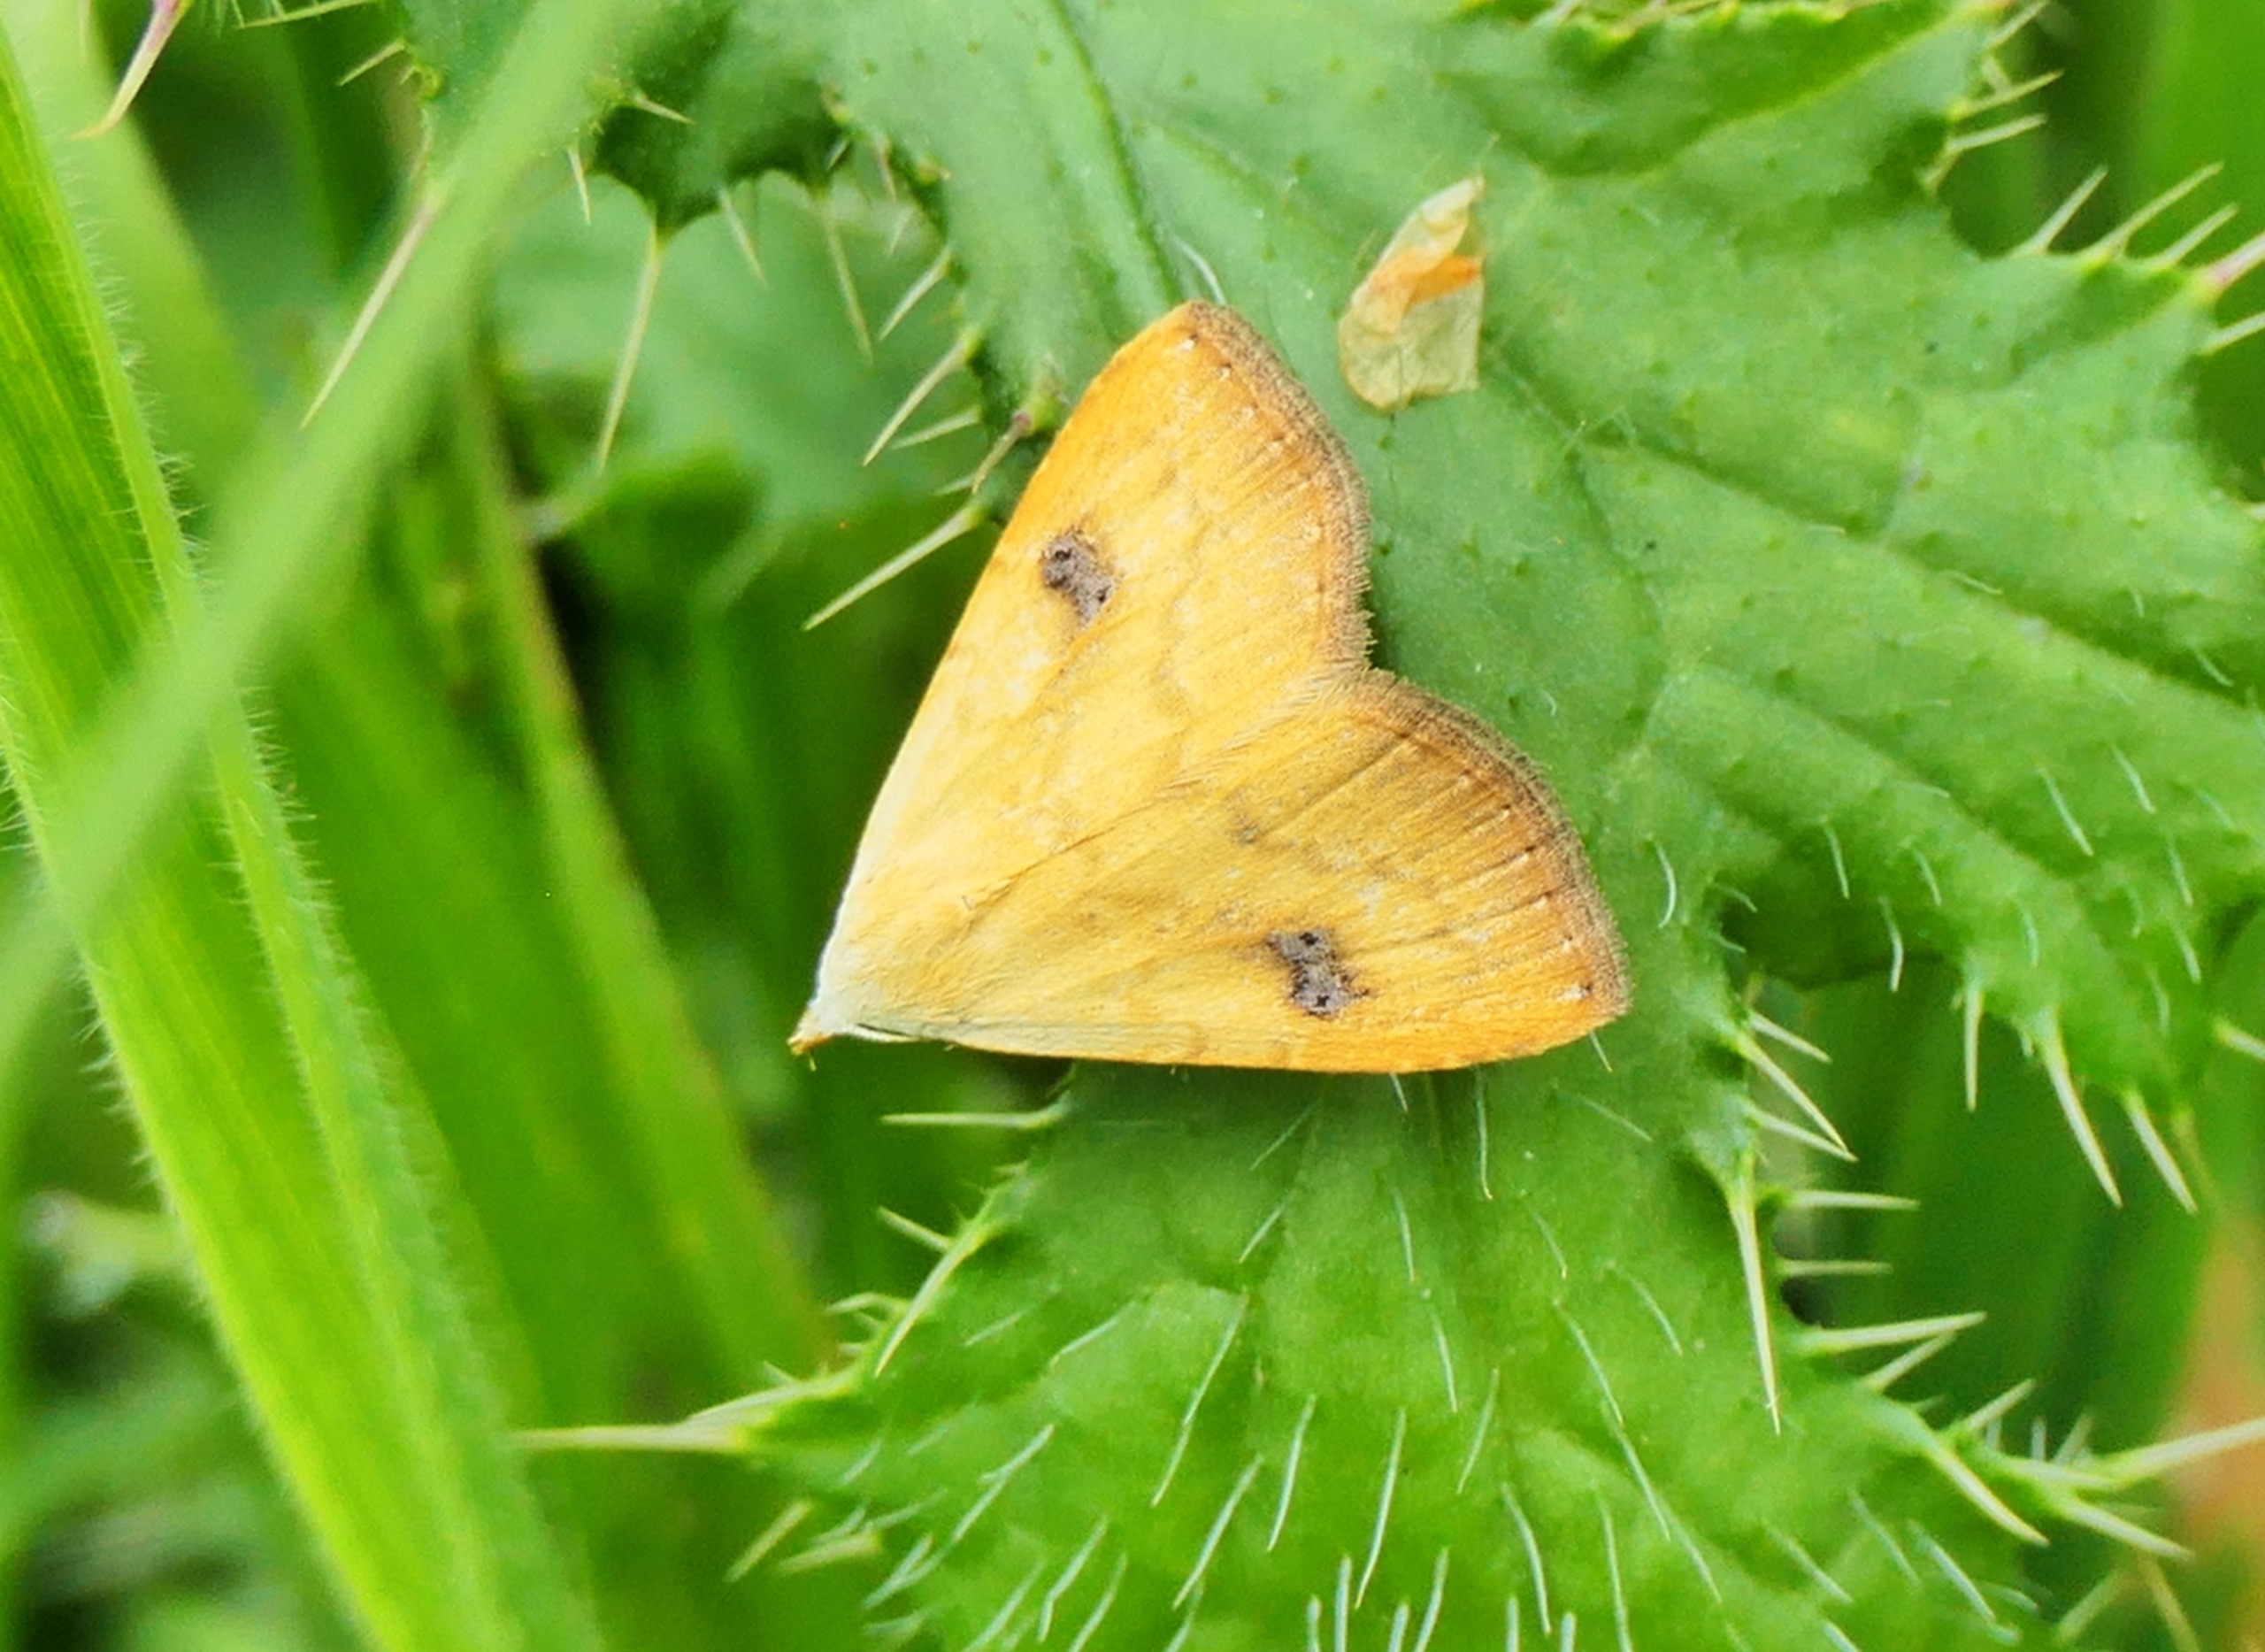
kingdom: Animalia
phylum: Arthropoda
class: Insecta
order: Lepidoptera
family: Erebidae
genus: Rivula
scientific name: Rivula sericealis
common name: Lille å-ugle
